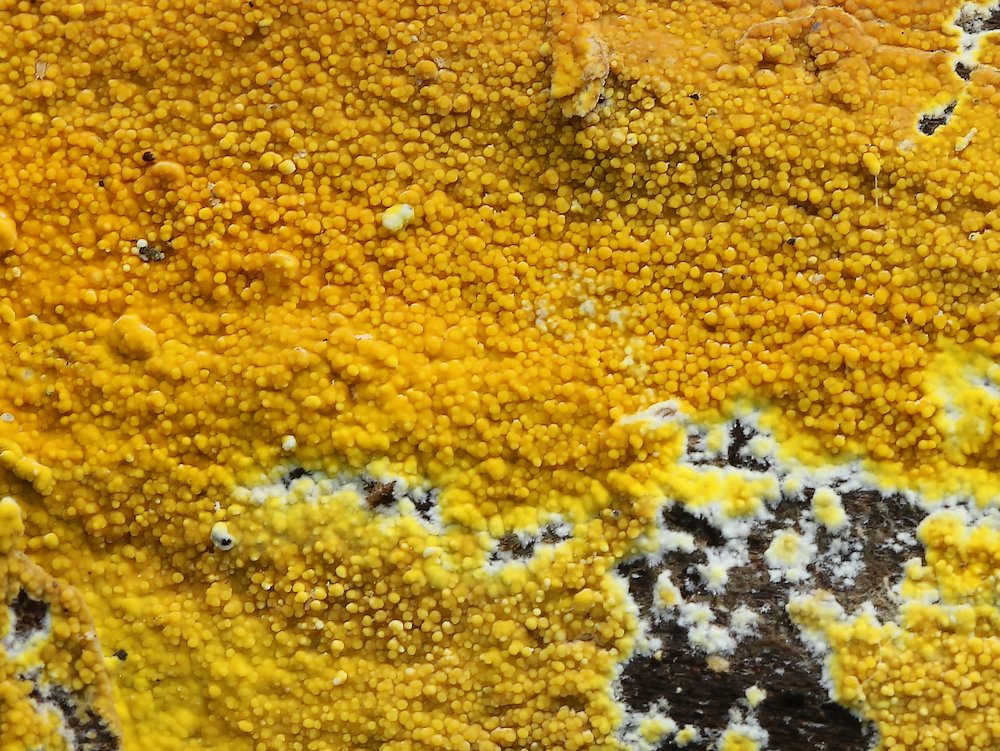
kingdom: Fungi
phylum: Basidiomycota
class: Agaricomycetes
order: Polyporales
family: Meruliaceae
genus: Phlebiodontia
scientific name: Phlebiodontia subochracea
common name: svovl-åresvamp
